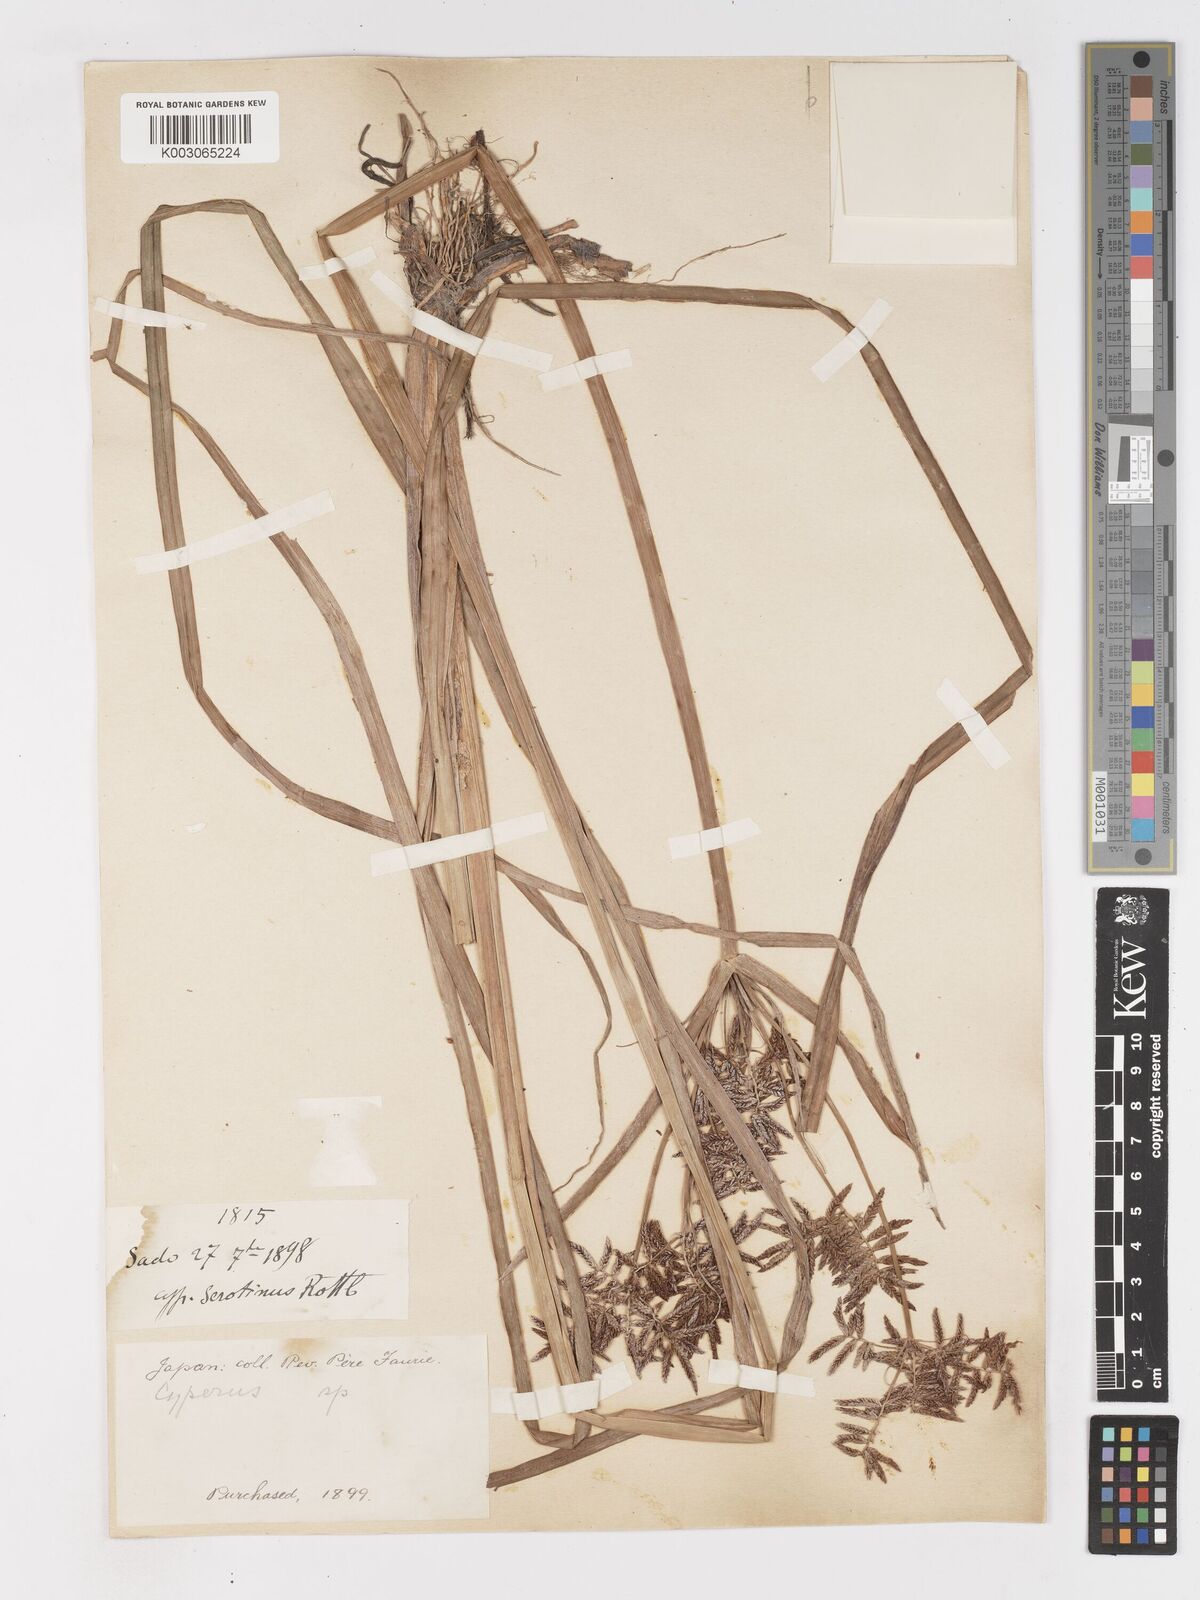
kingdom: Plantae
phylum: Tracheophyta
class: Liliopsida
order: Poales
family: Cyperaceae
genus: Cyperus
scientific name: Cyperus serotinus
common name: Tidalmarsh flatsedge
